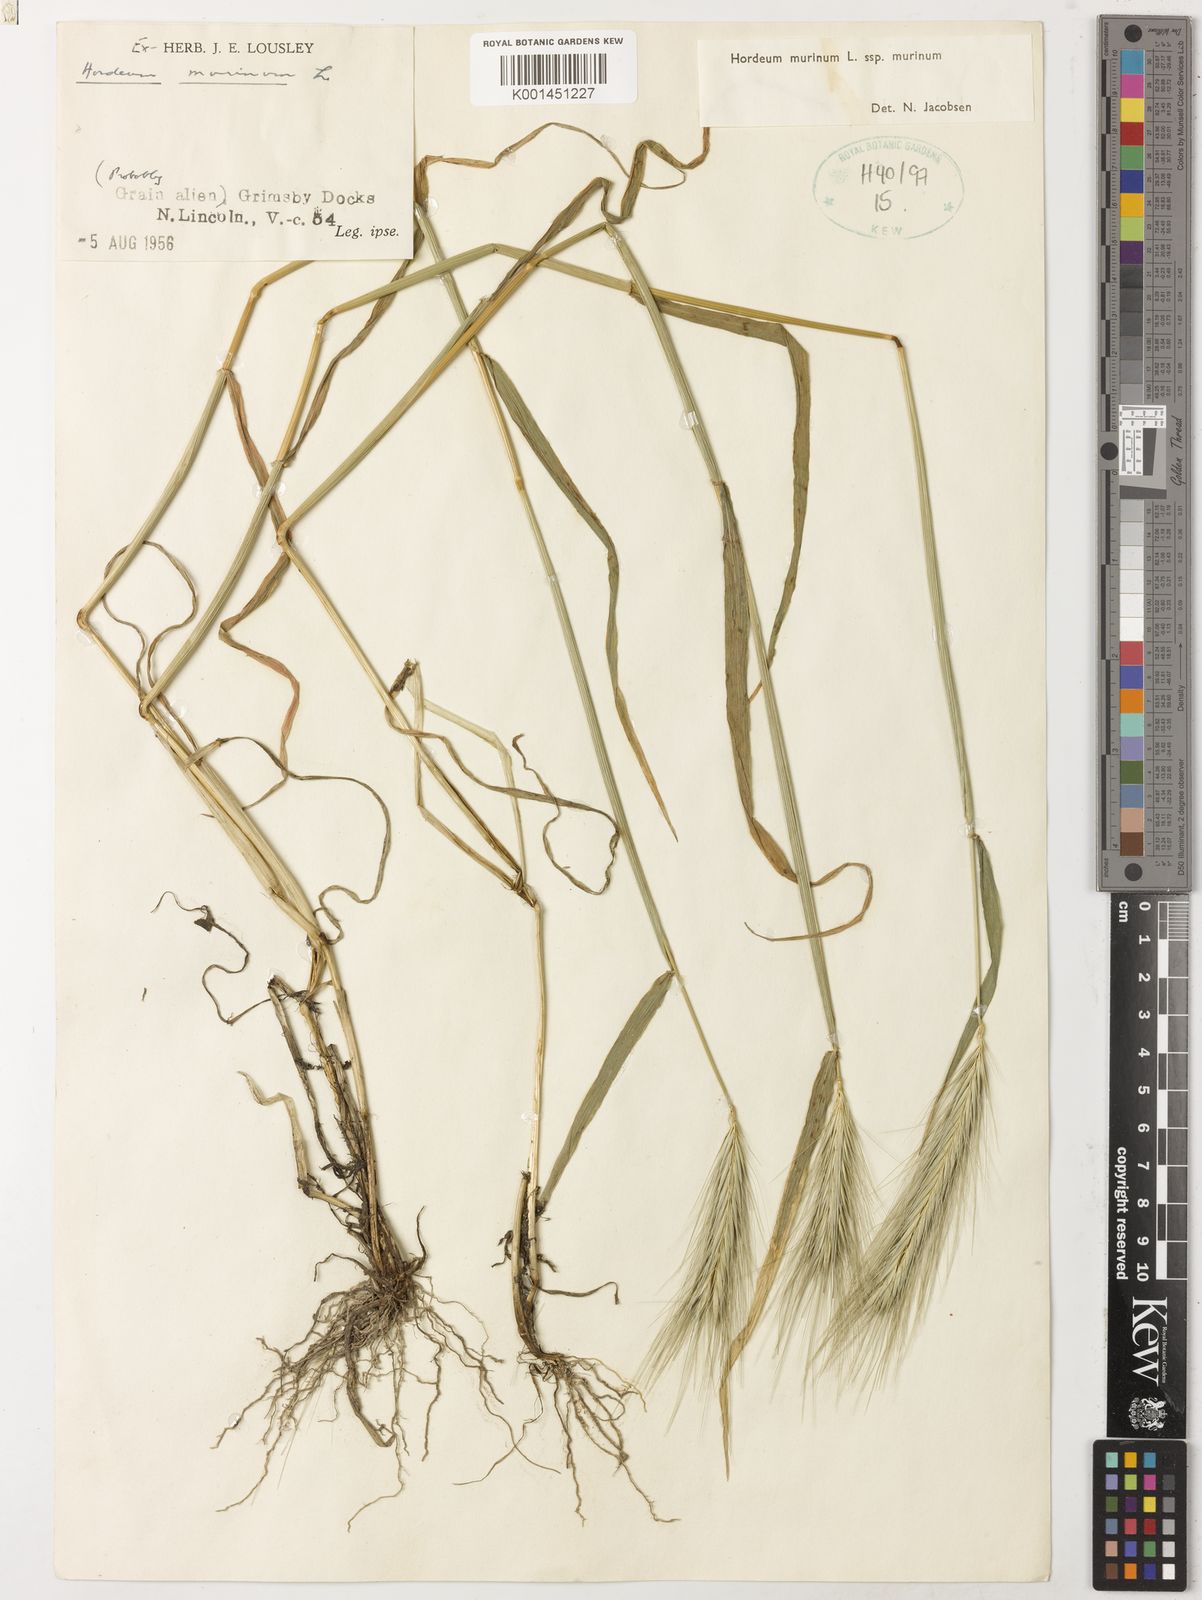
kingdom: Plantae
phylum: Tracheophyta
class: Liliopsida
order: Poales
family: Poaceae
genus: Hordeum
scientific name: Hordeum murinum
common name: Wall barley
